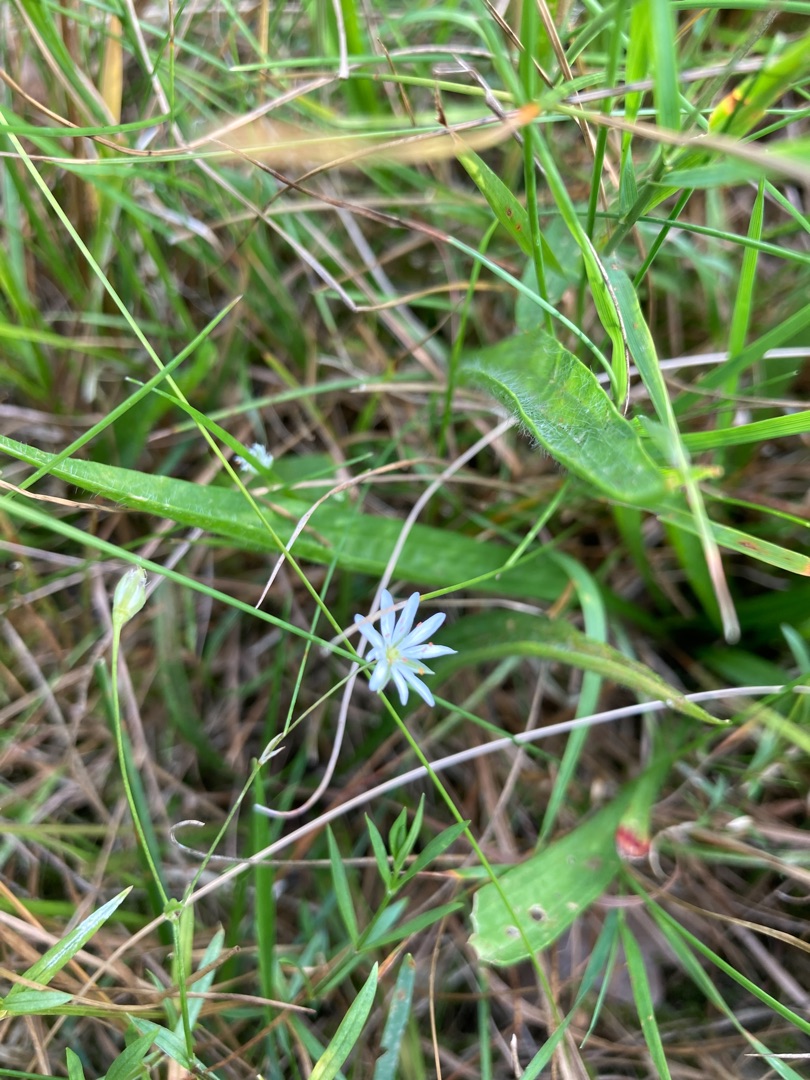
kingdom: Plantae
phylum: Tracheophyta
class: Magnoliopsida
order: Caryophyllales
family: Caryophyllaceae
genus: Stellaria
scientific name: Stellaria graminea
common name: Græsbladet fladstjerne
